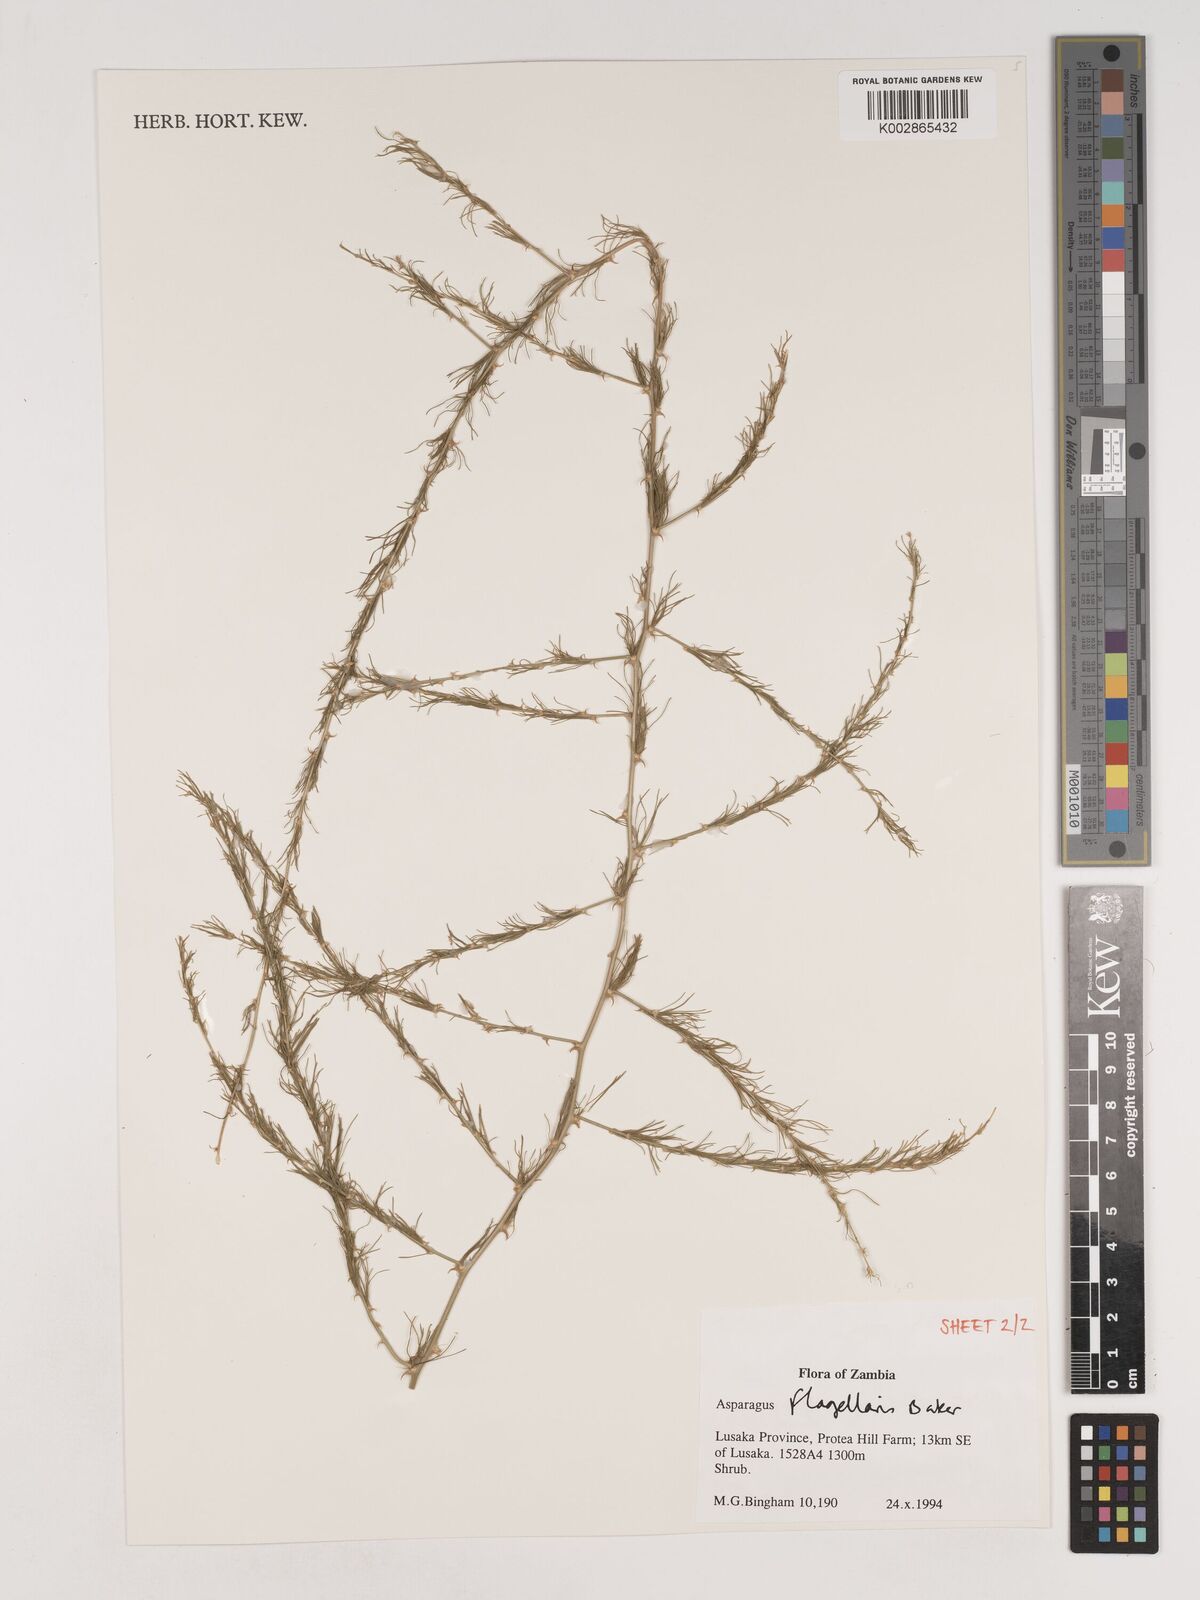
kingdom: Plantae
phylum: Tracheophyta
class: Liliopsida
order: Asparagales
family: Asparagaceae
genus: Asparagus
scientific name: Asparagus flagellaris
